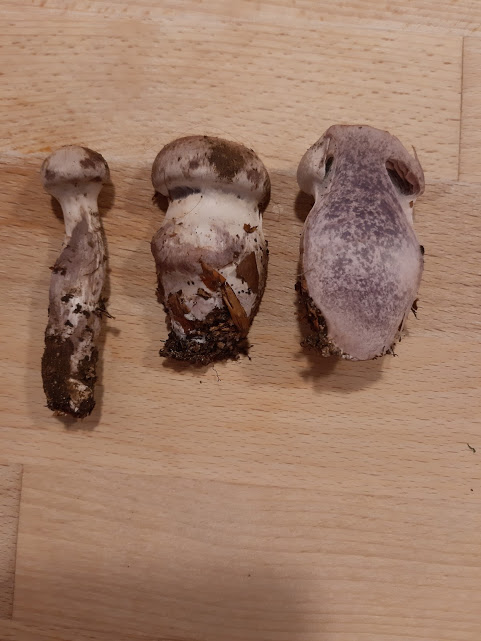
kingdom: Fungi
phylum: Basidiomycota
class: Agaricomycetes
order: Agaricales
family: Cortinariaceae
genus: Cortinarius
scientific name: Cortinarius
